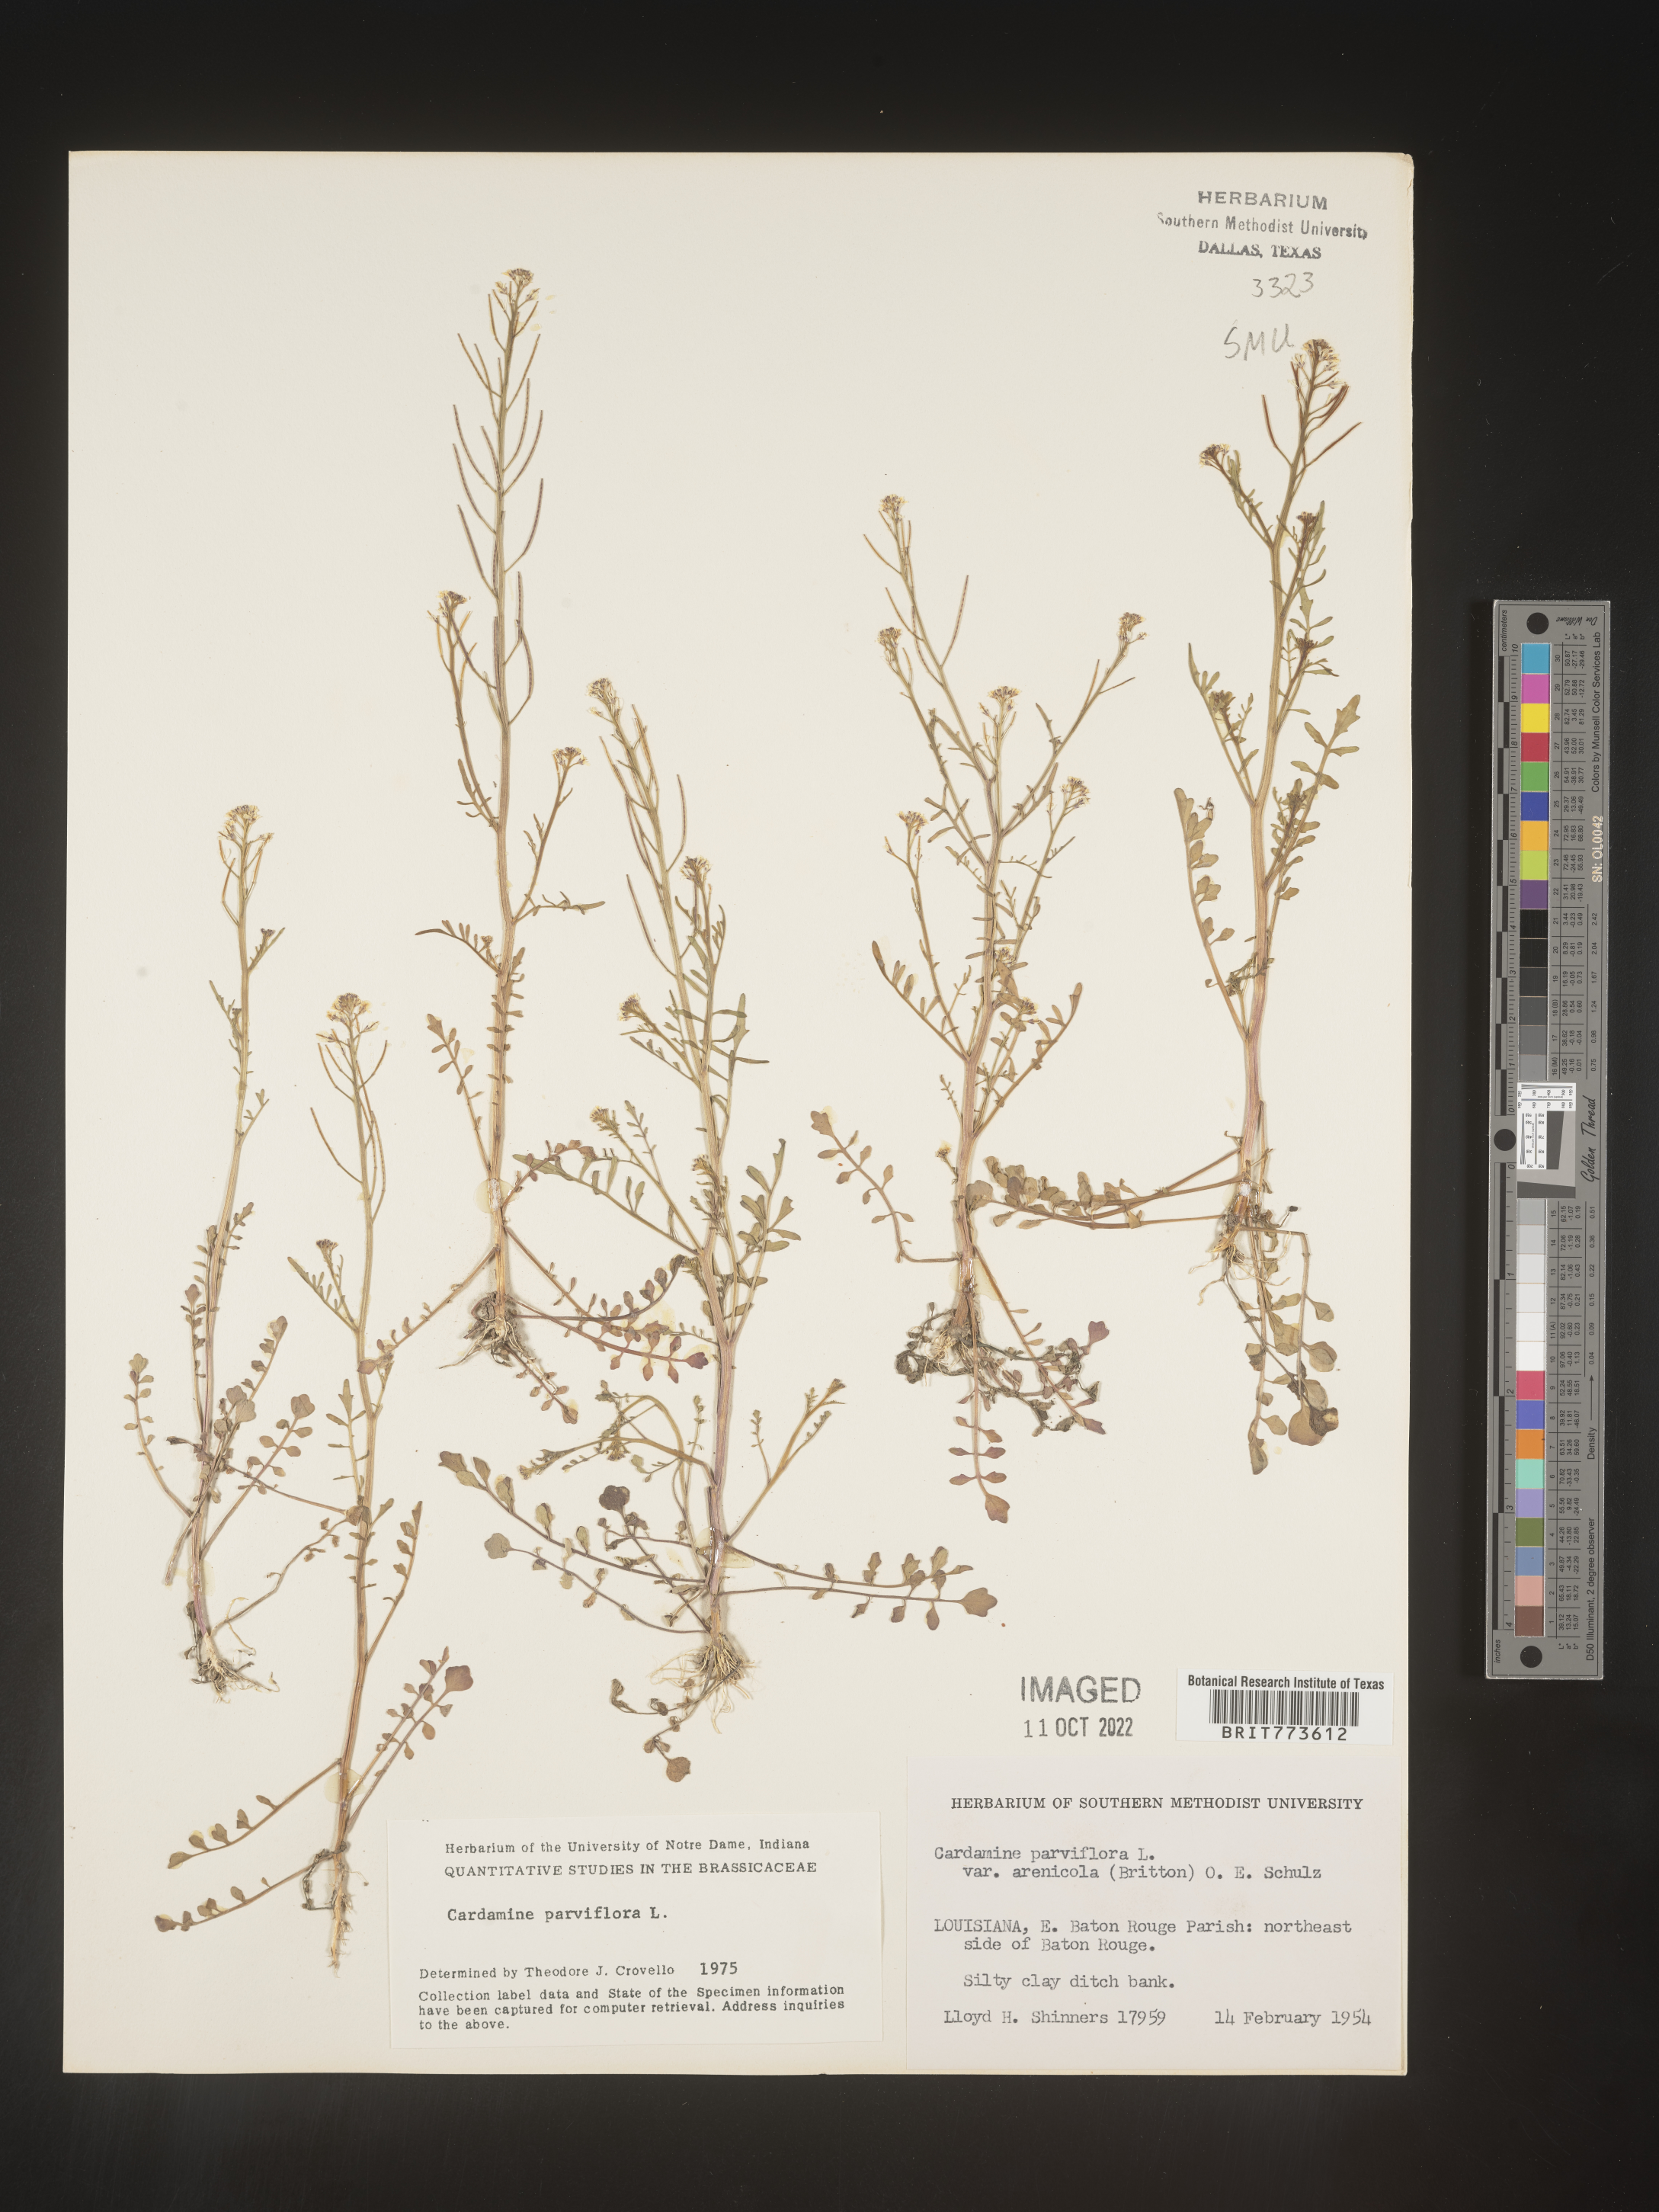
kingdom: Plantae
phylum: Tracheophyta
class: Magnoliopsida
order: Brassicales
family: Brassicaceae
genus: Cardamine
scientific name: Cardamine parviflora
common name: Sand bittercress
